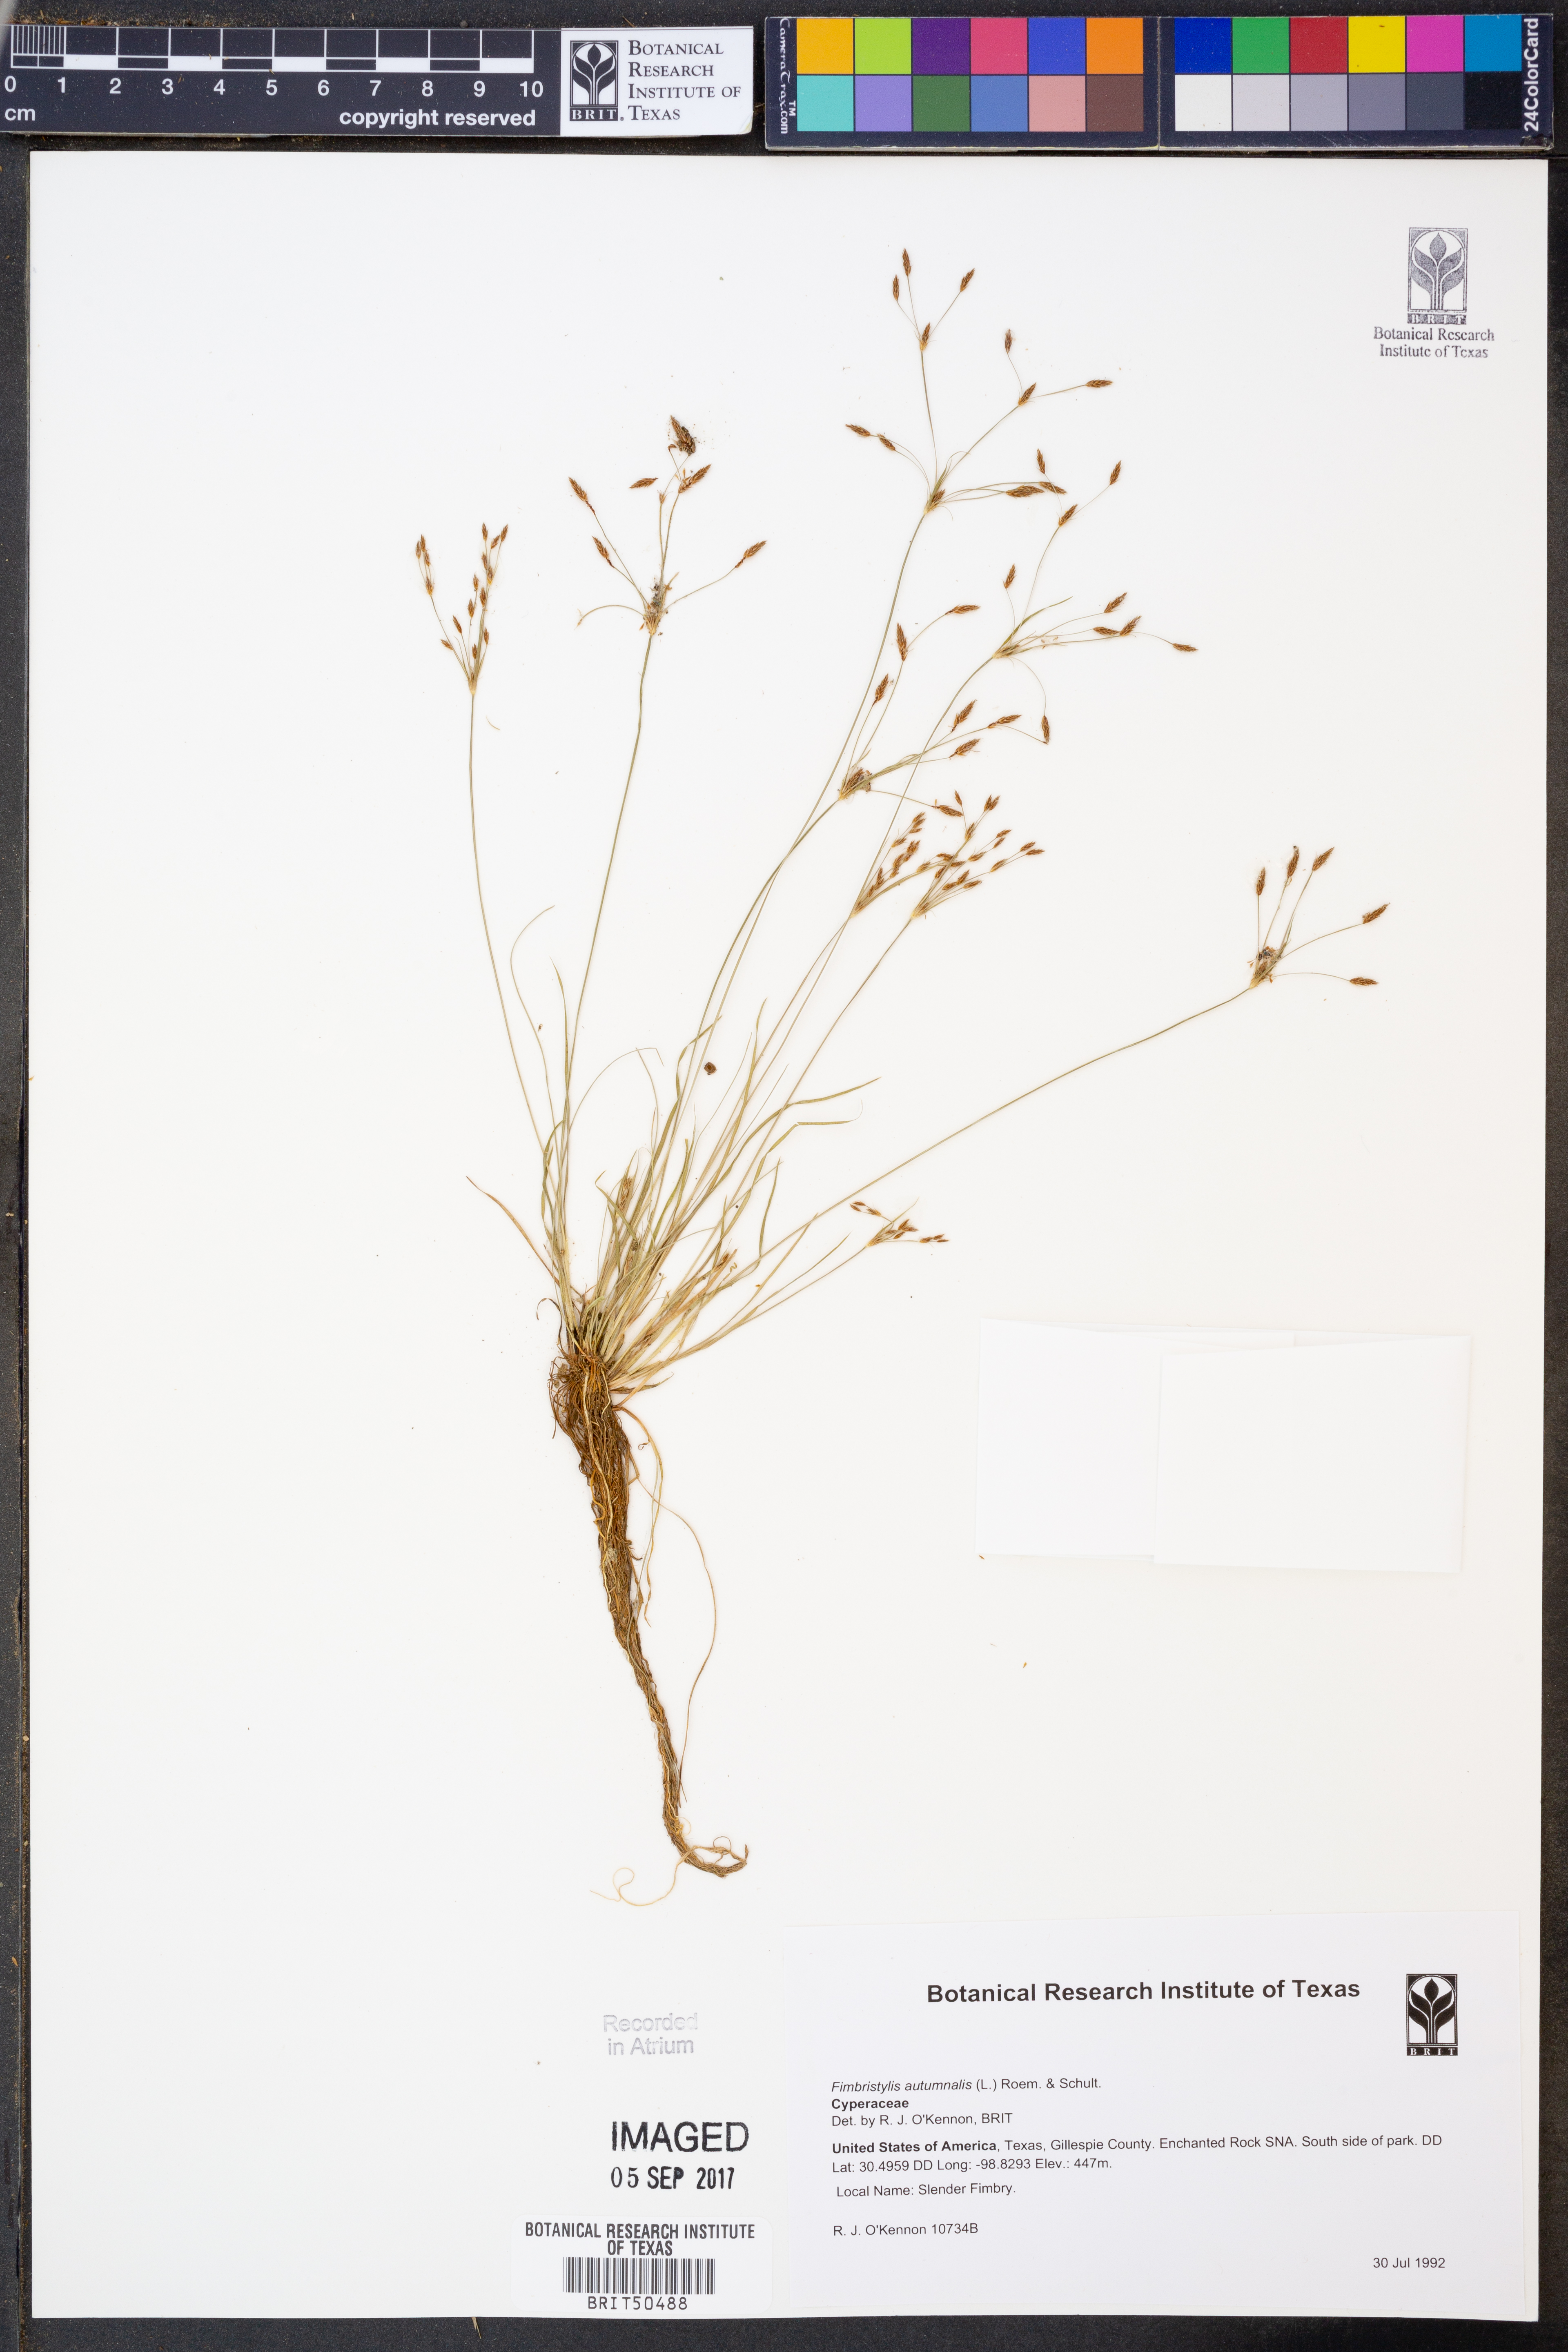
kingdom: Plantae
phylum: Tracheophyta
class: Liliopsida
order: Poales
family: Cyperaceae
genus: Fimbristylis
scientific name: Fimbristylis autumnalis
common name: Slender fimbristylis
